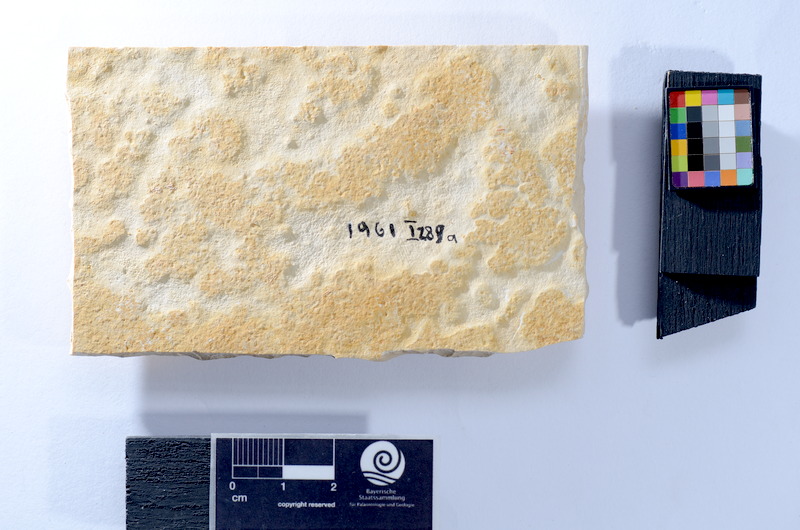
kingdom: Animalia
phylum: Chordata
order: Salmoniformes
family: Orthogonikleithridae
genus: Leptolepides
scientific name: Leptolepides sprattiformis
